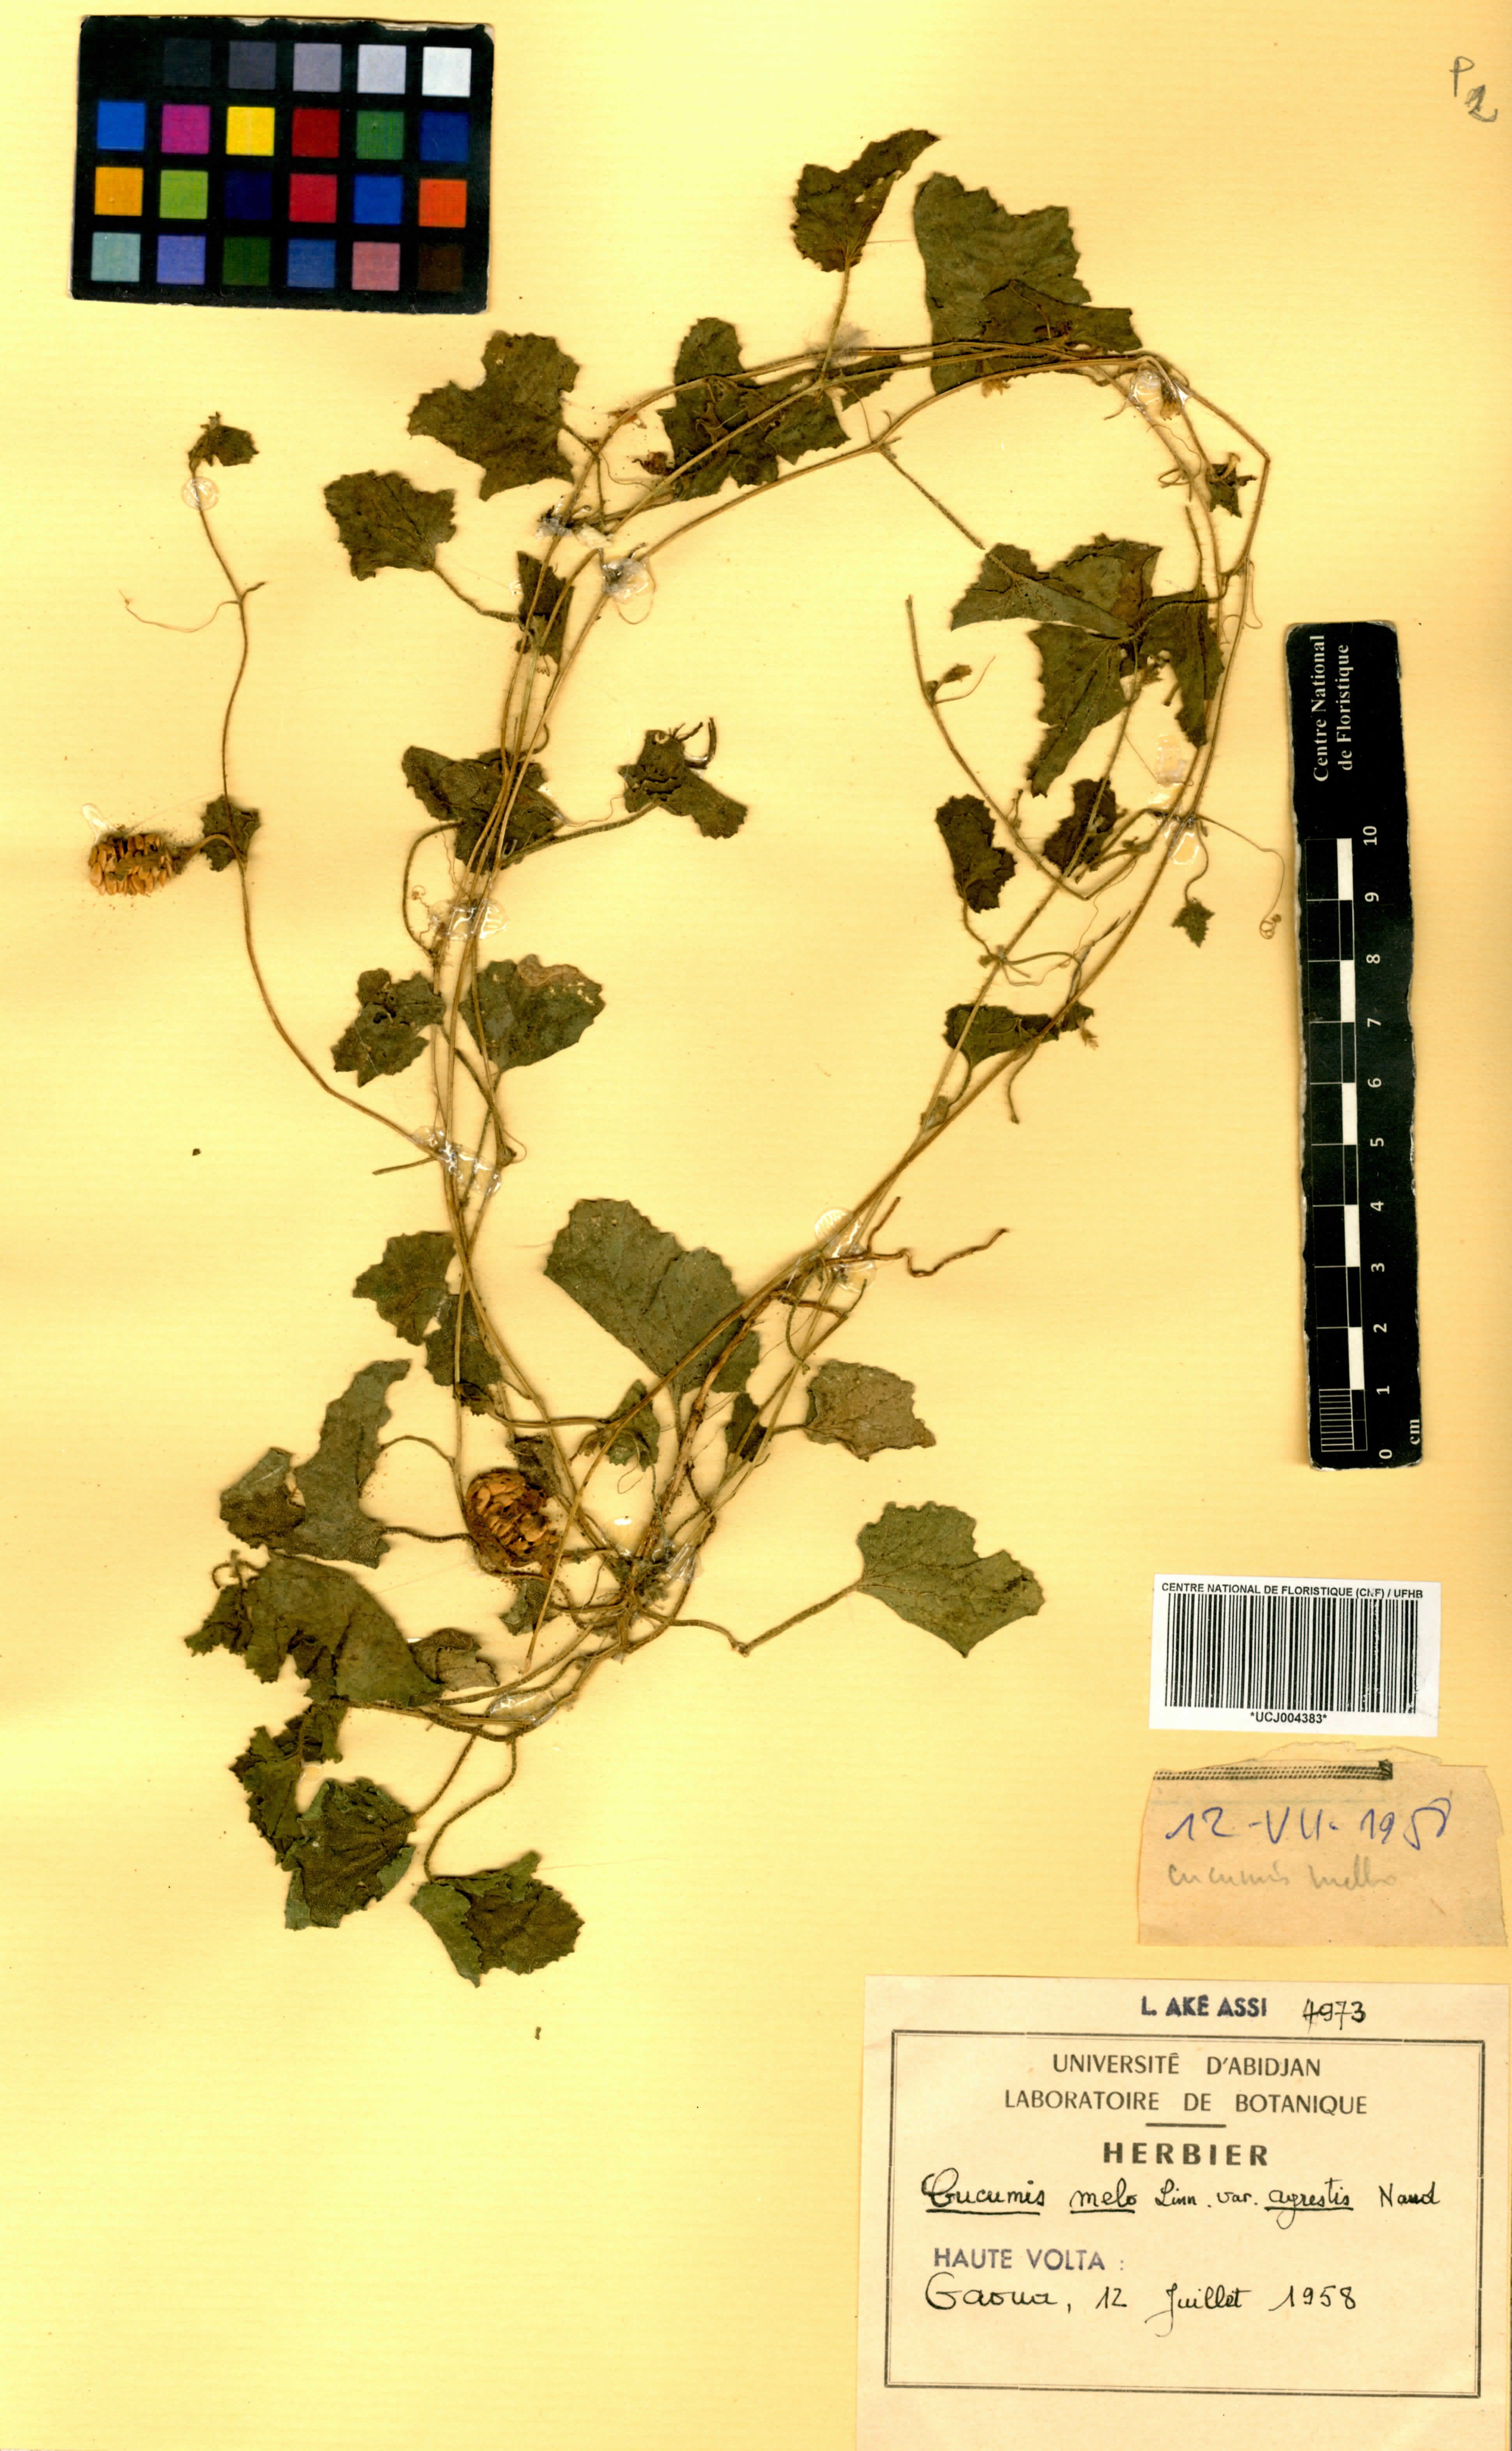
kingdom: Plantae
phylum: Tracheophyta
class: Magnoliopsida
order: Cucurbitales
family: Cucurbitaceae
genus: Cucumis
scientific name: Cucumis melo
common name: Melon
